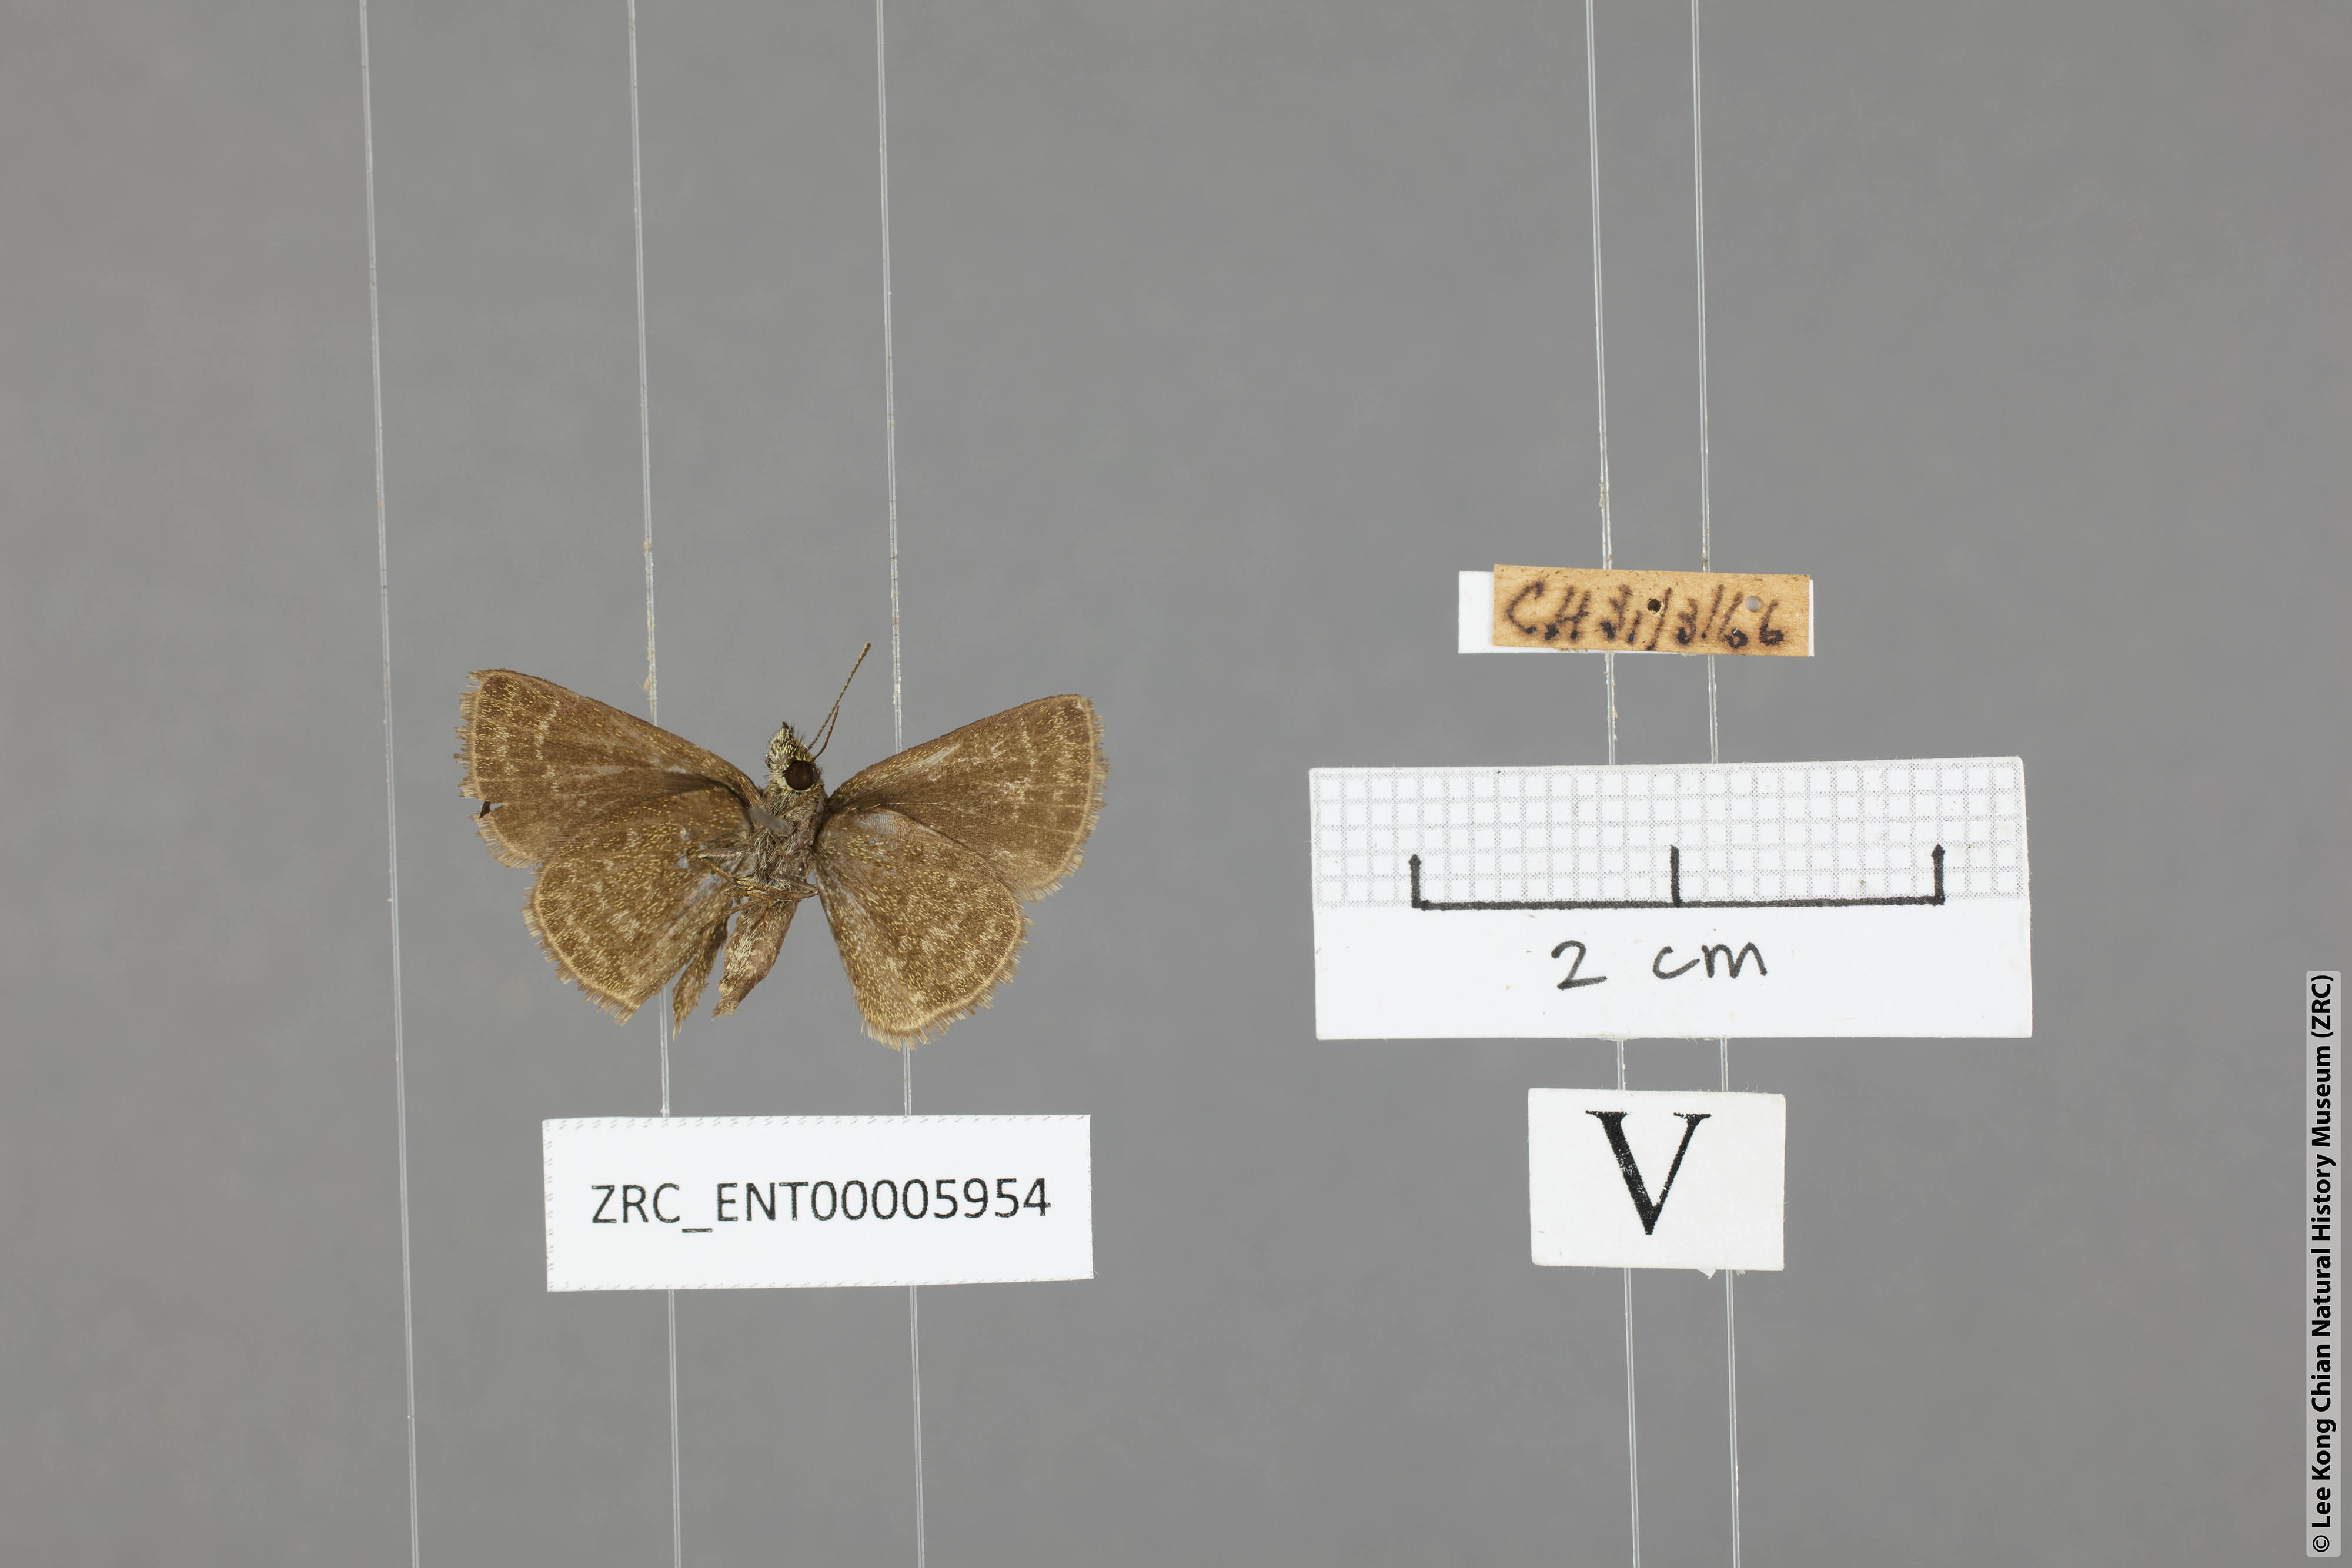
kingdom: Animalia
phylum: Arthropoda
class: Insecta
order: Lepidoptera
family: Hesperiidae
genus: Aeromachus
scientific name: Aeromachus jhora
